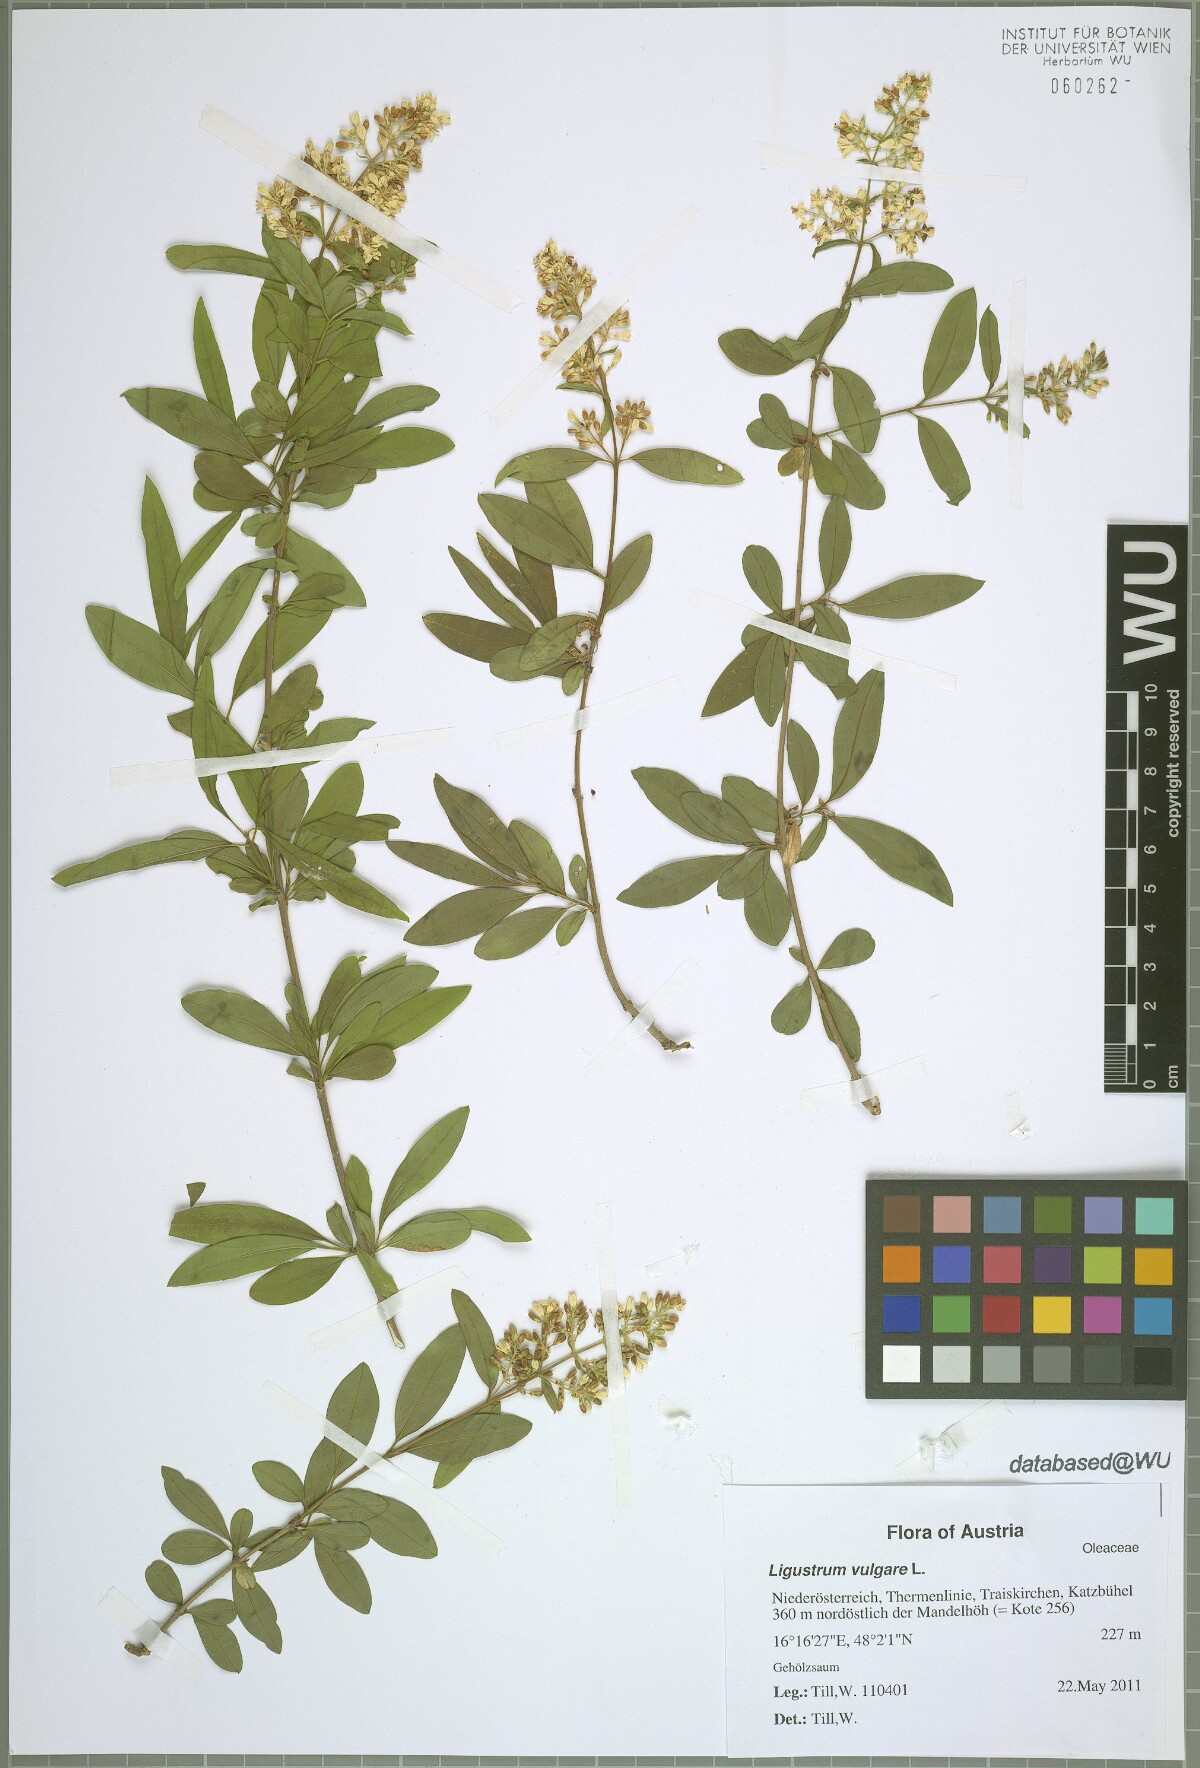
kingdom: Plantae
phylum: Tracheophyta
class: Magnoliopsida
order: Lamiales
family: Oleaceae
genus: Ligustrum
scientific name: Ligustrum vulgare
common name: Wild privet
